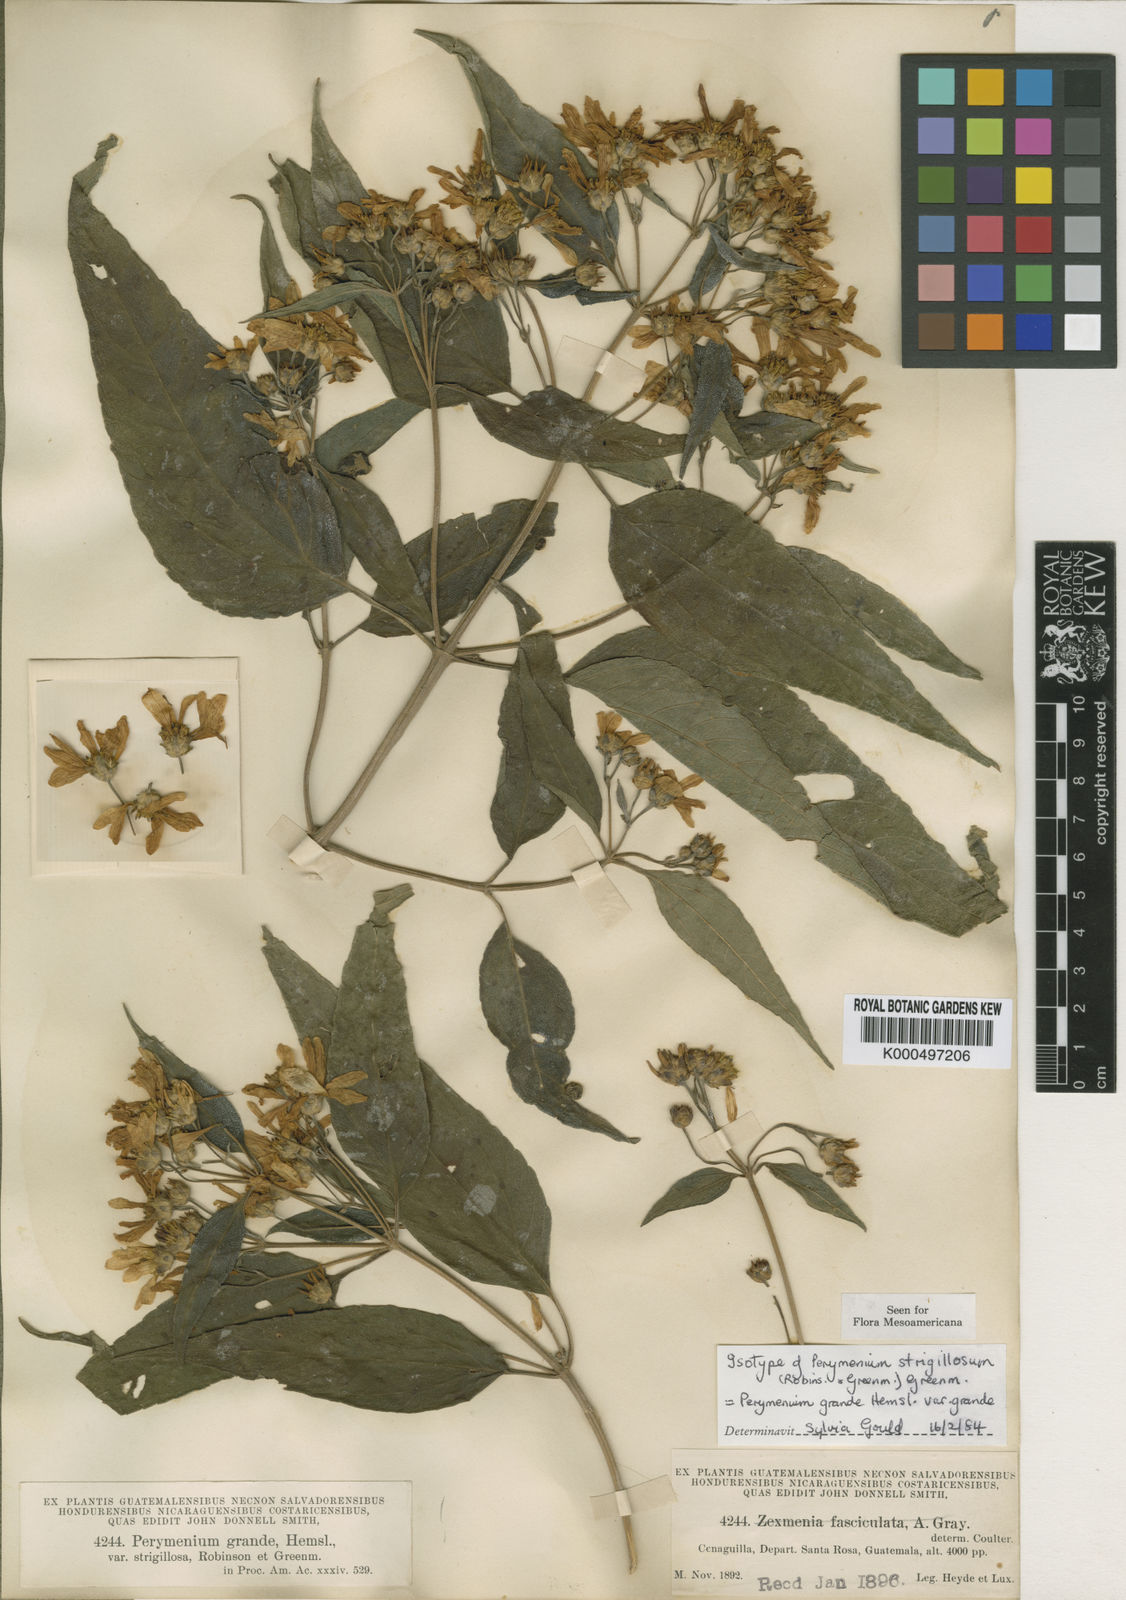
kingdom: Plantae
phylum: Tracheophyta
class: Magnoliopsida
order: Asterales
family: Asteraceae
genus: Perymenium
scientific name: Perymenium grande
